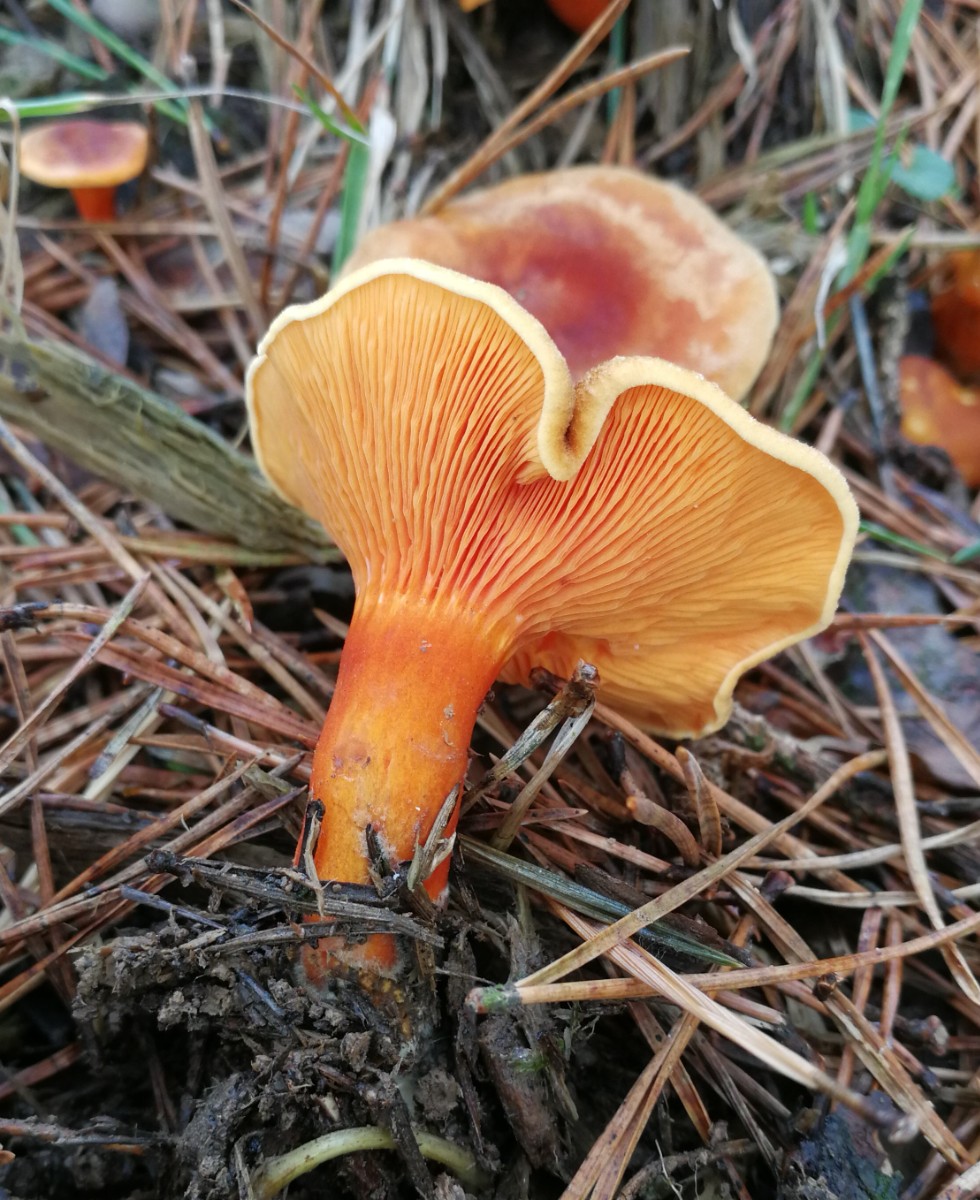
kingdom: Fungi
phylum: Basidiomycota
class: Agaricomycetes
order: Boletales
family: Hygrophoropsidaceae
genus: Hygrophoropsis
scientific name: Hygrophoropsis aurantiaca
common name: almindelig orangekantarel
